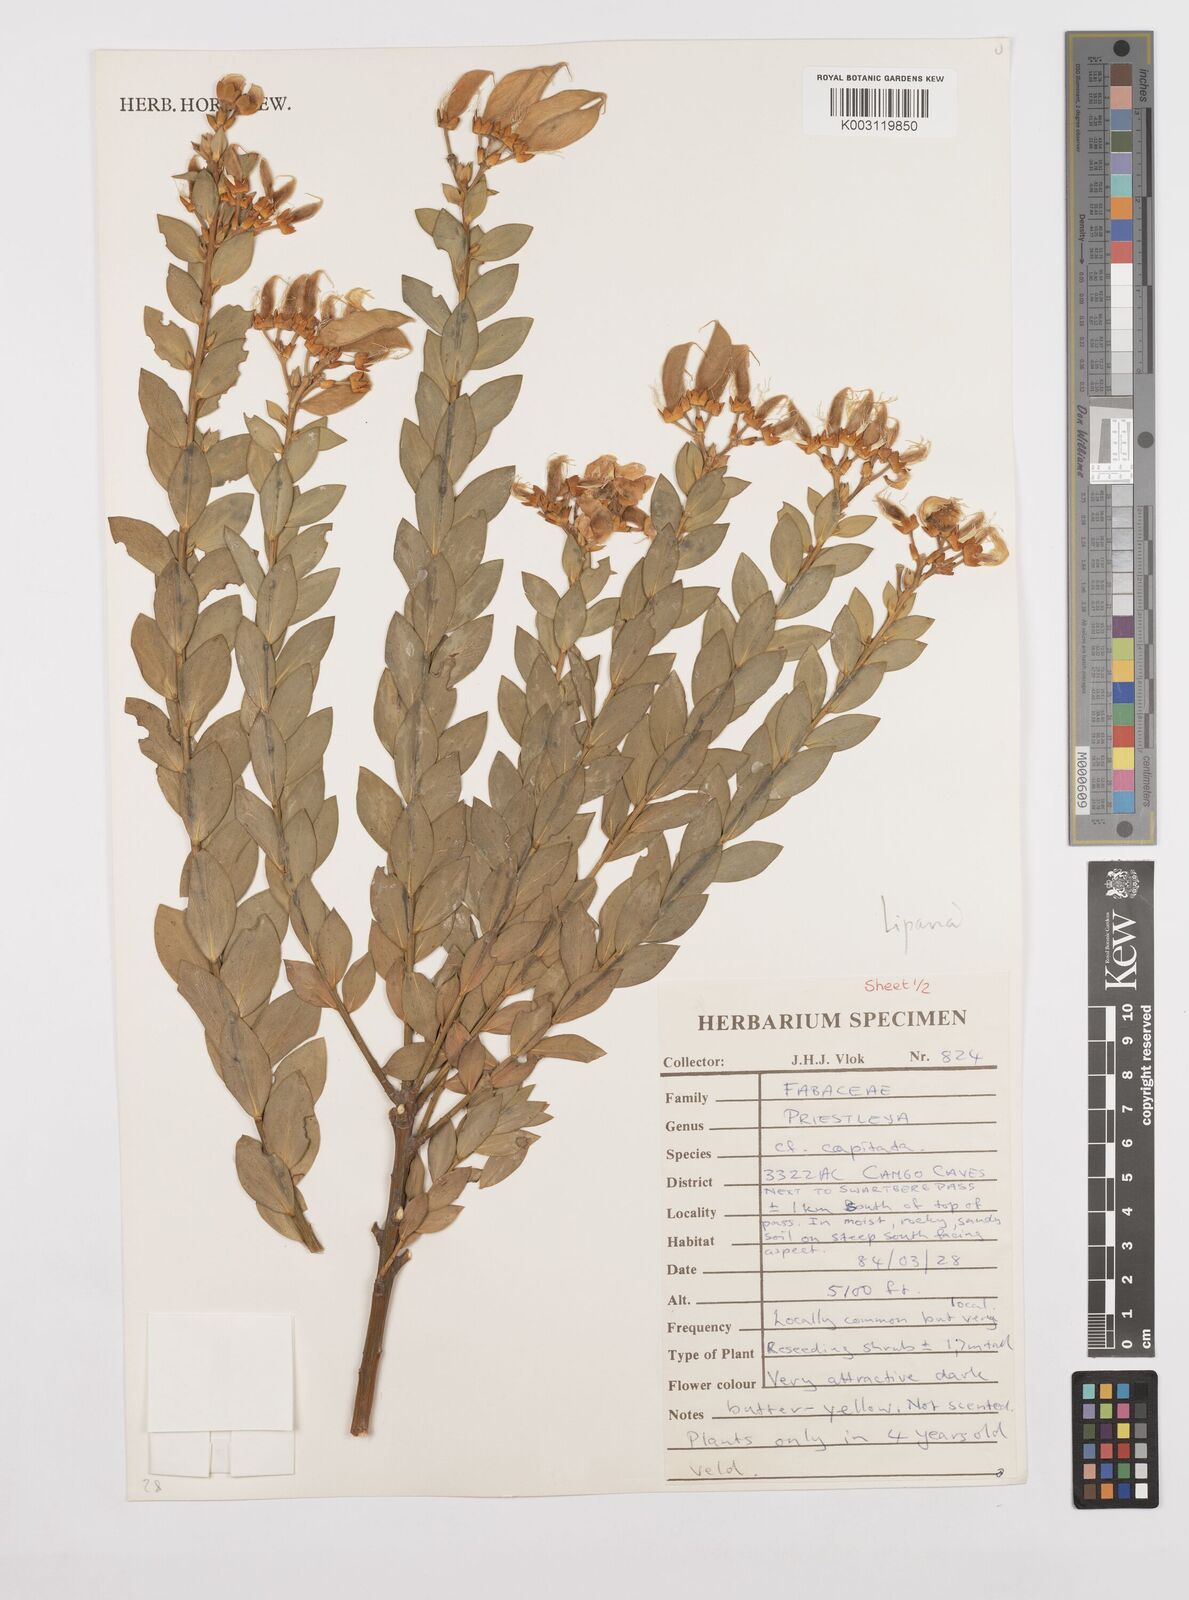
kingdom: Plantae
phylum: Tracheophyta
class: Magnoliopsida
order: Fabales
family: Fabaceae
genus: Liparia
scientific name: Liparia
